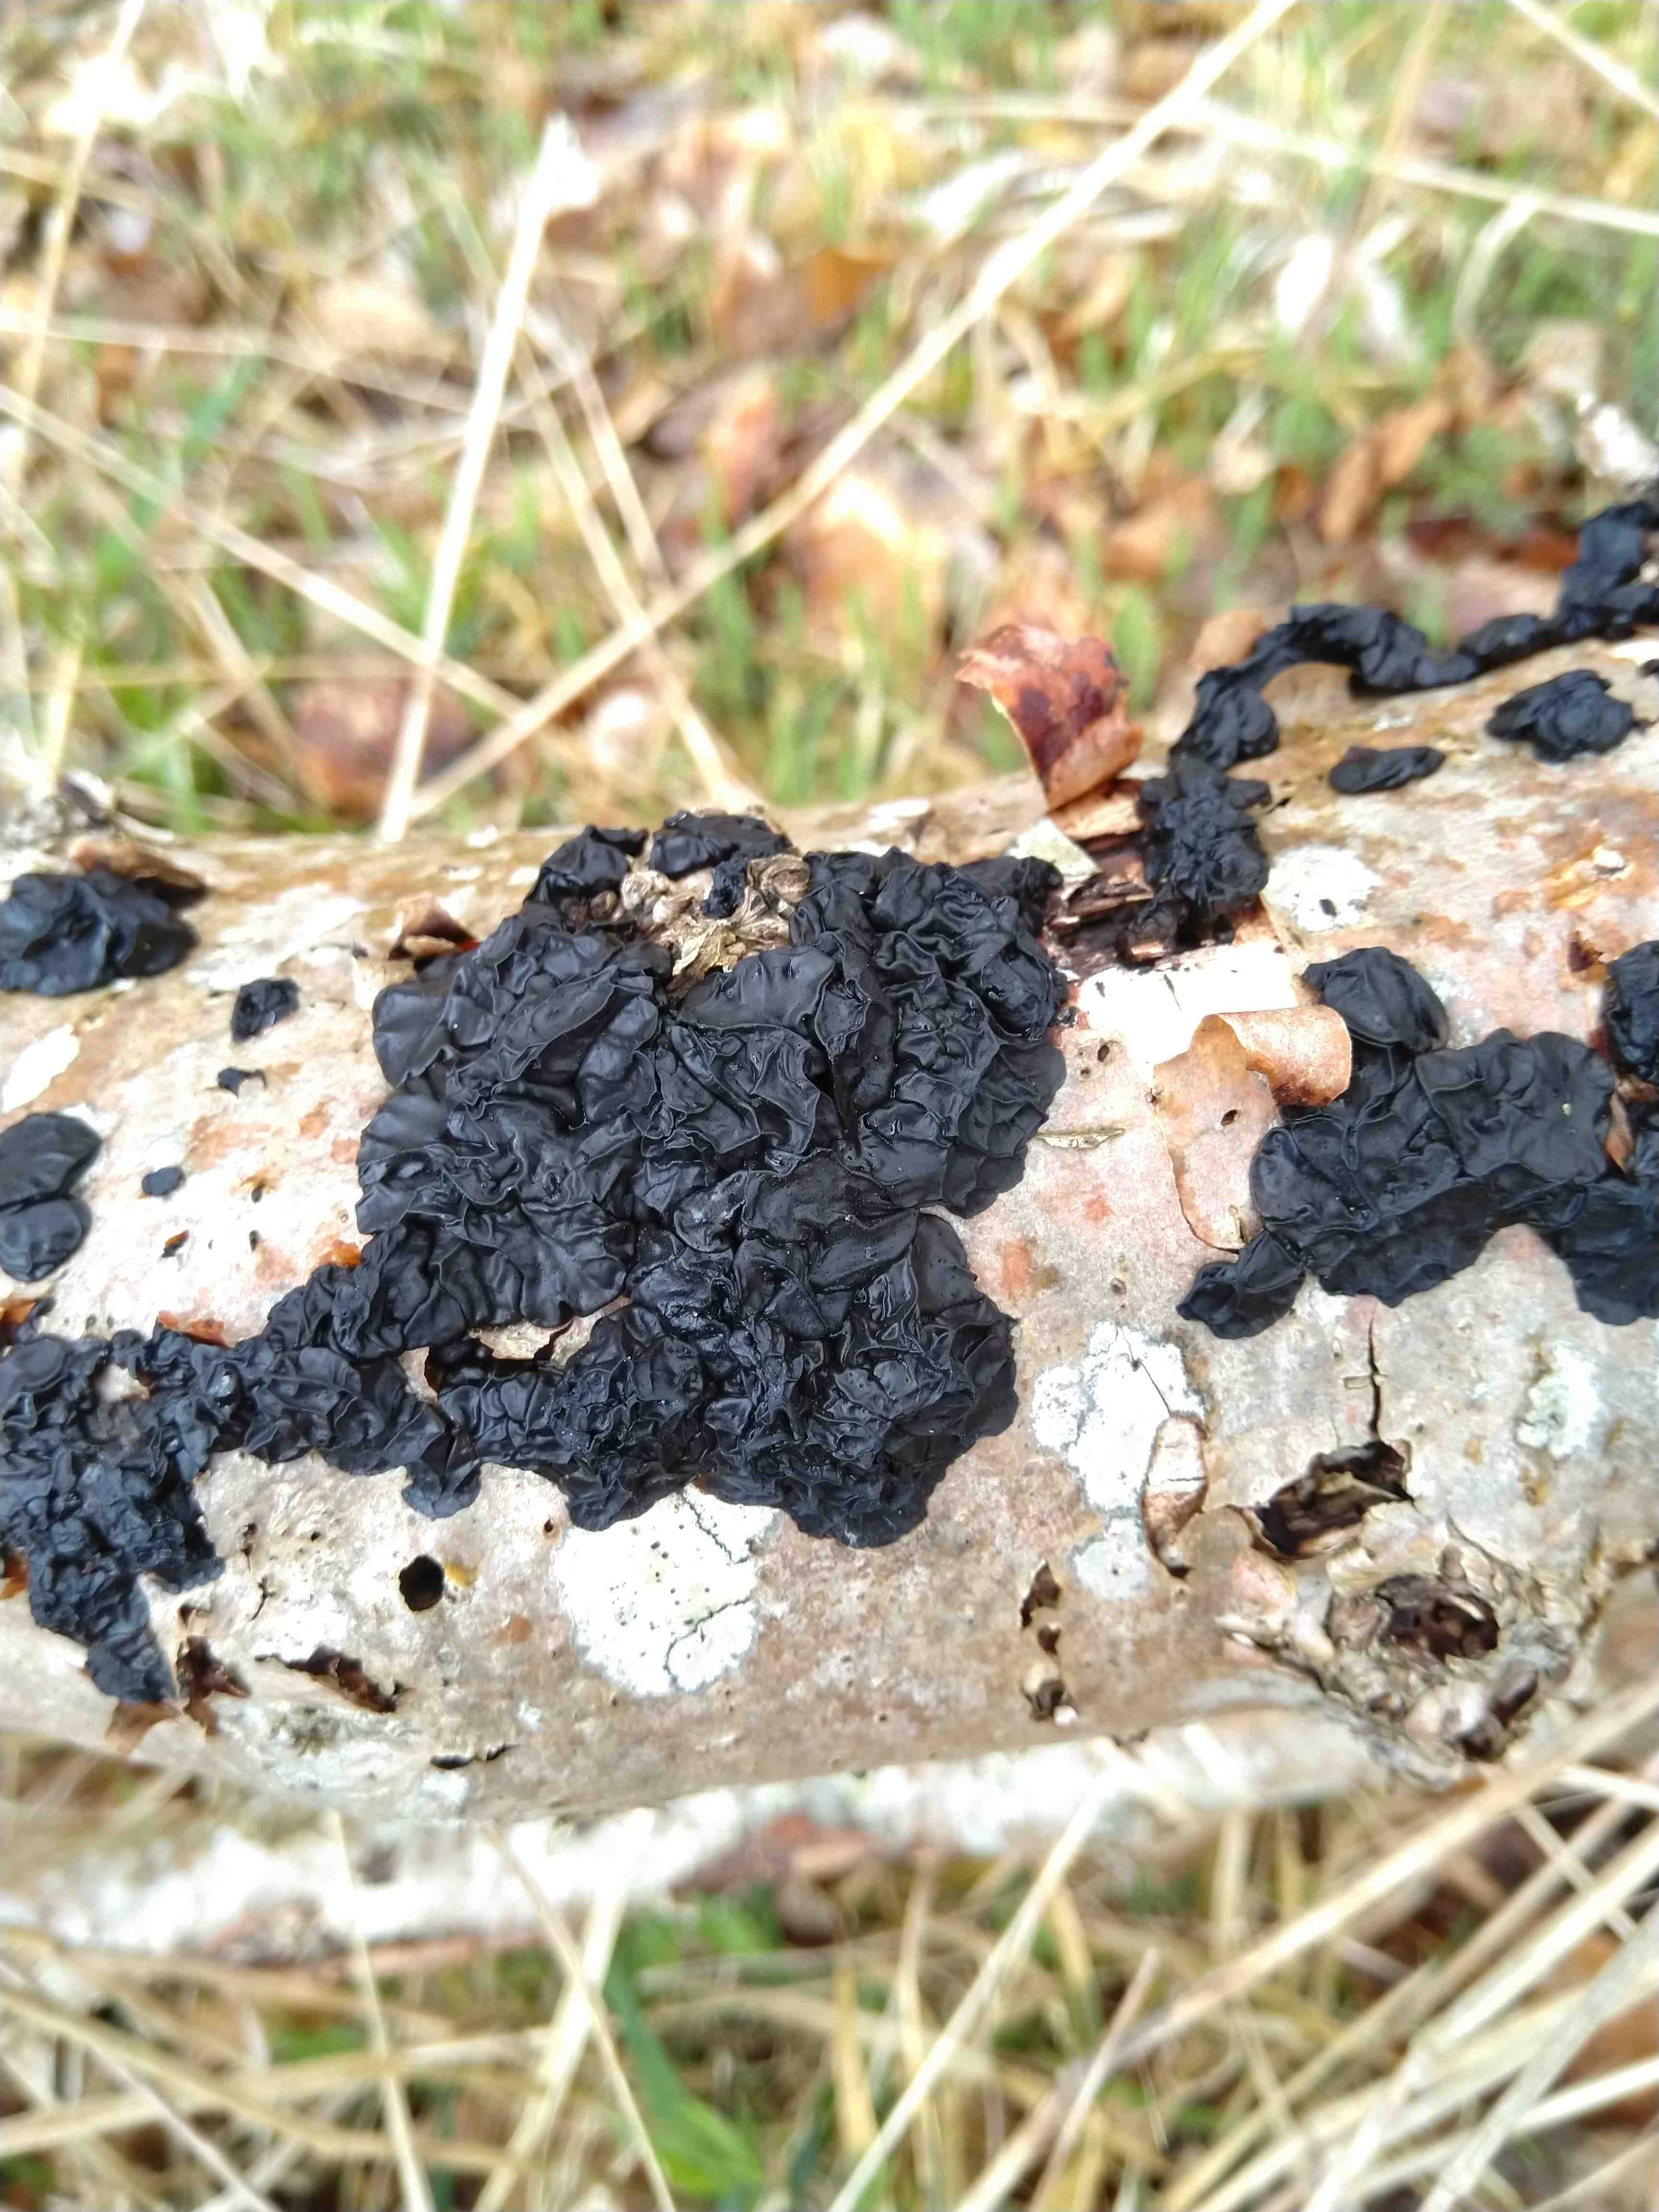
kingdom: Fungi
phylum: Basidiomycota
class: Agaricomycetes
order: Auriculariales
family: Auriculariaceae
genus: Exidia
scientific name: Exidia nigricans
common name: almindelig bævretop
